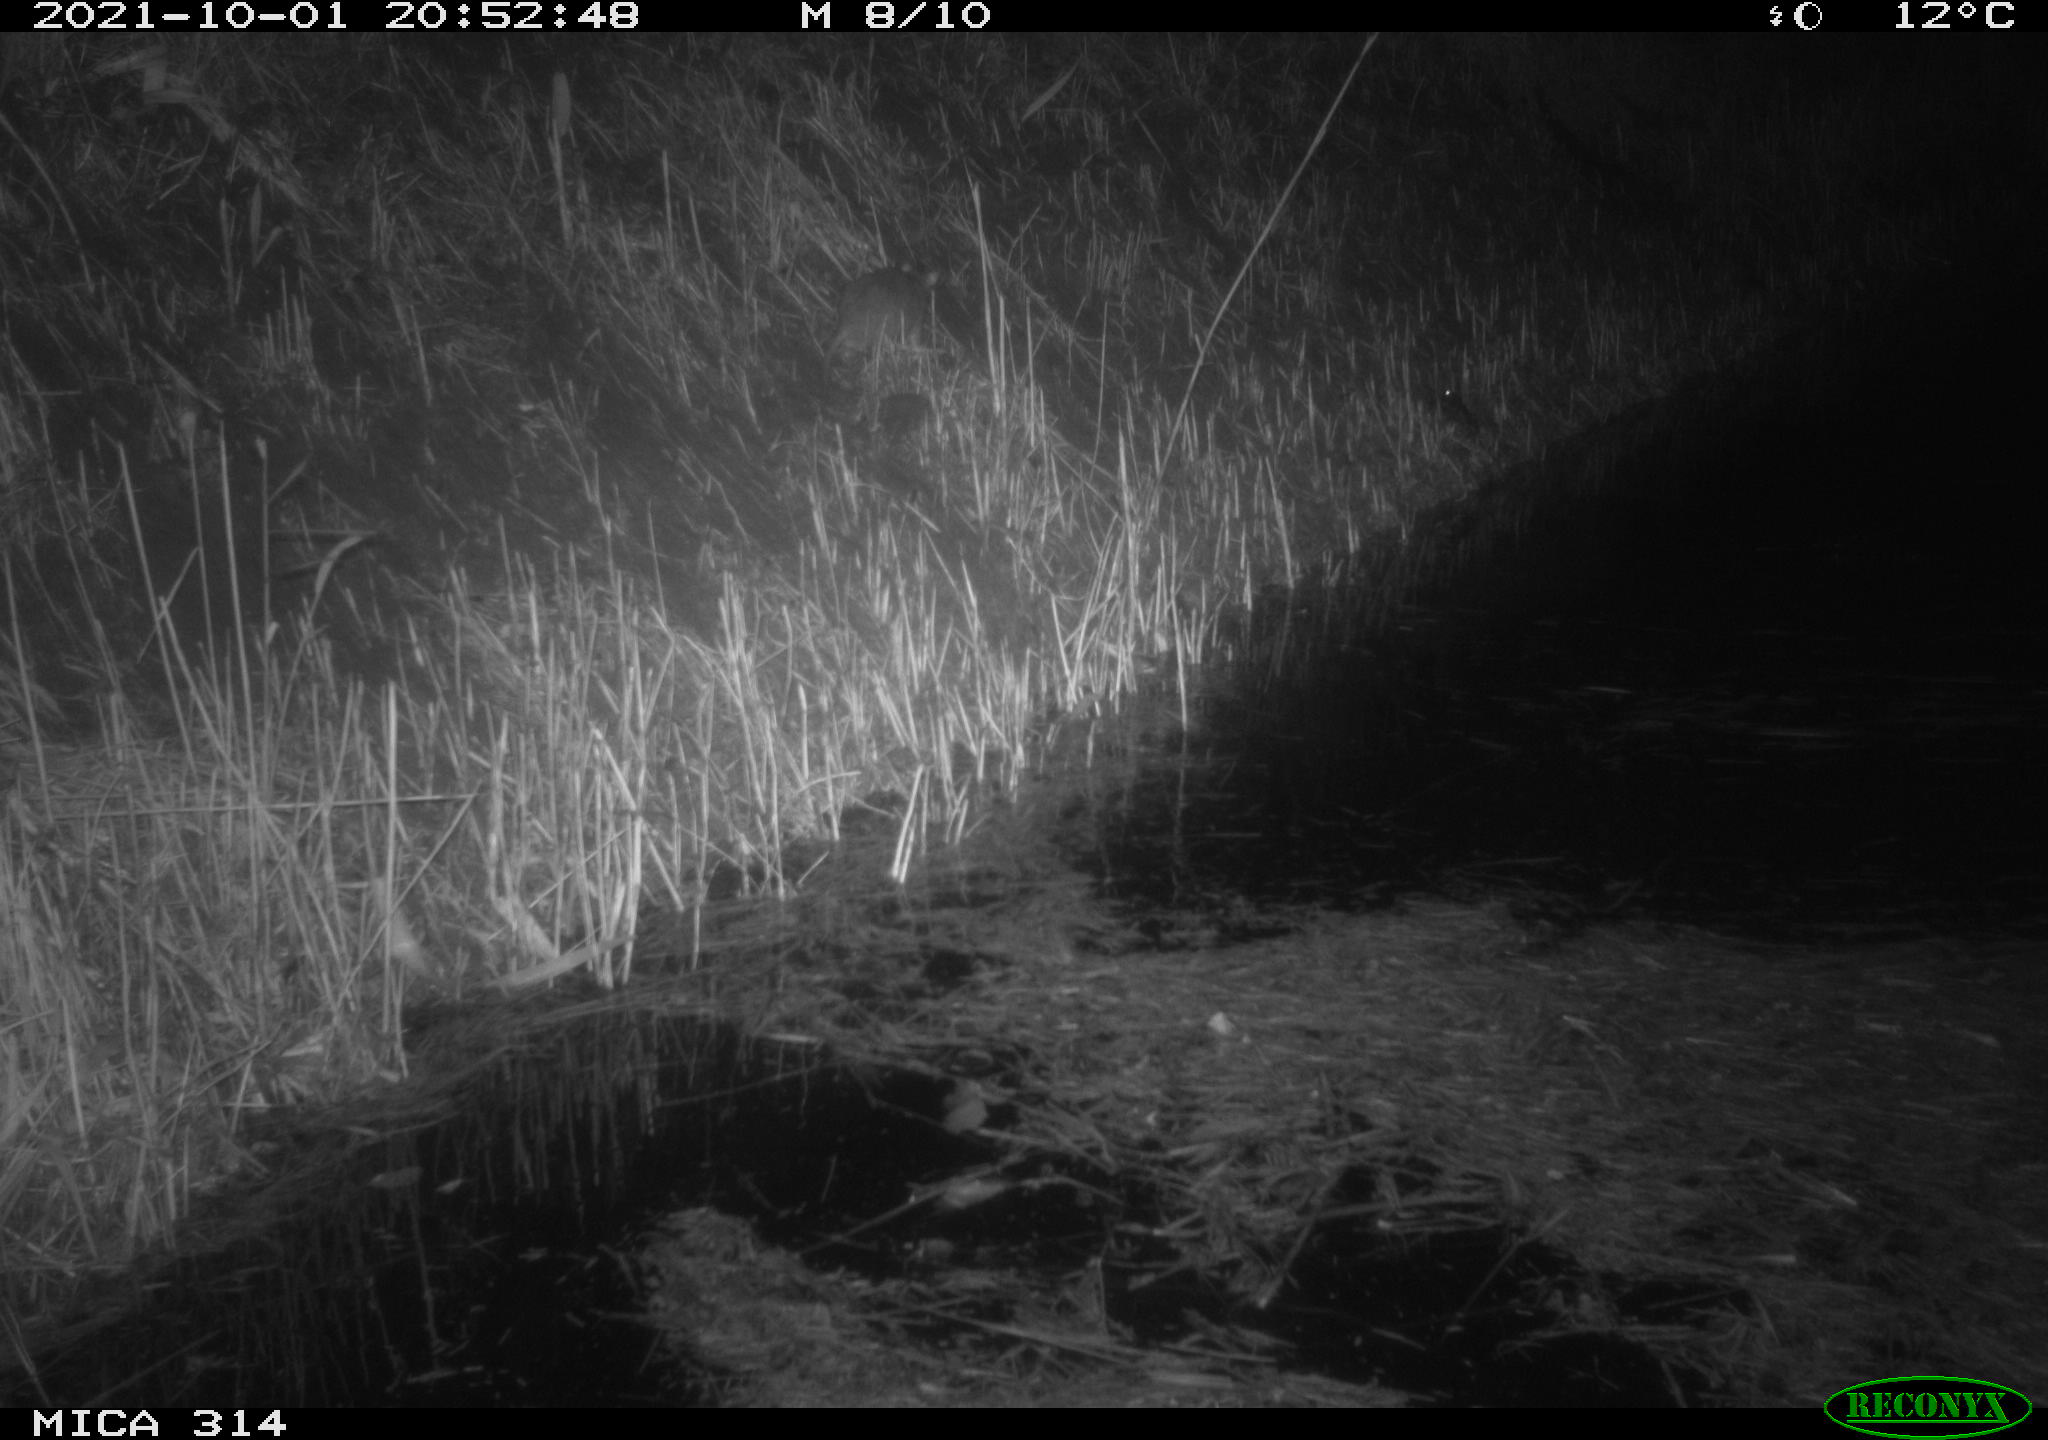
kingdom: Animalia
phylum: Chordata
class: Mammalia
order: Rodentia
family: Muridae
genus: Rattus
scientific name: Rattus norvegicus
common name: Brown rat
